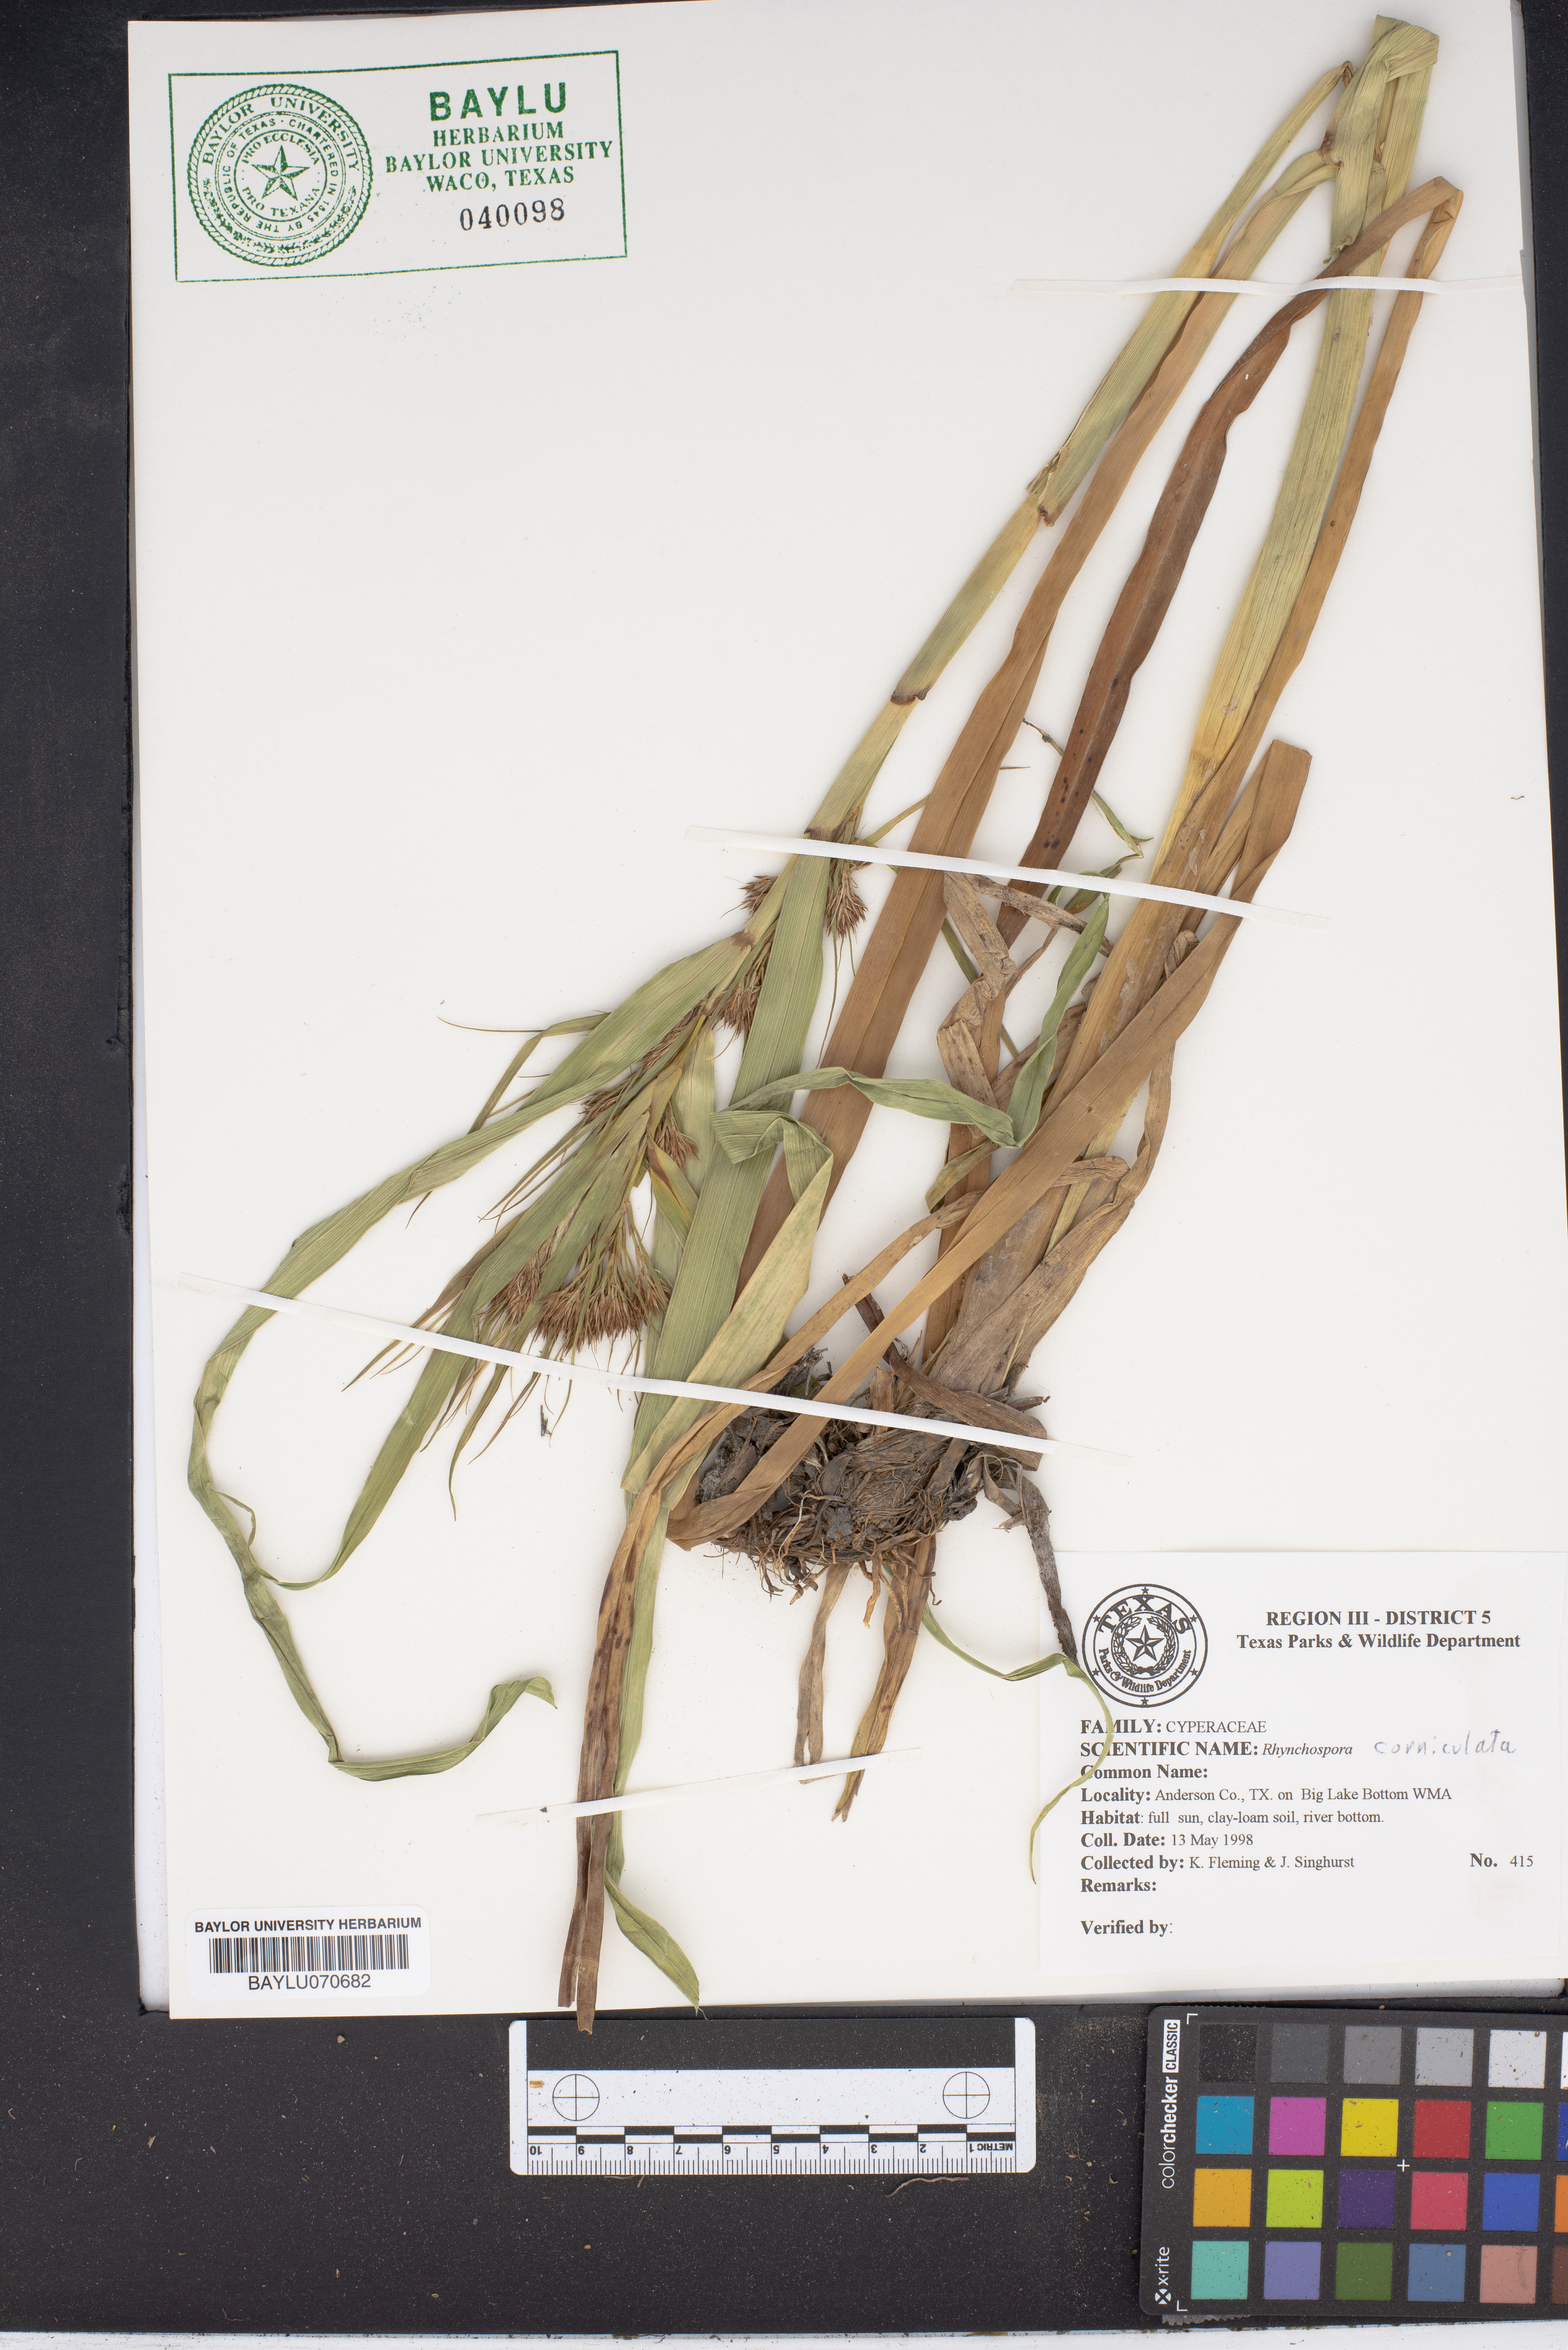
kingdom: Plantae
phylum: Tracheophyta
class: Liliopsida
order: Poales
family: Cyperaceae
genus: Rhynchospora
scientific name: Rhynchospora corniculata
